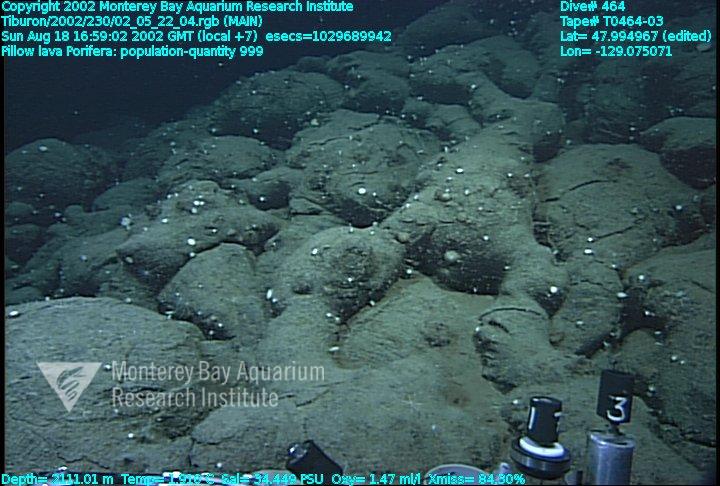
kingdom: Animalia
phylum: Porifera
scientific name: Porifera
